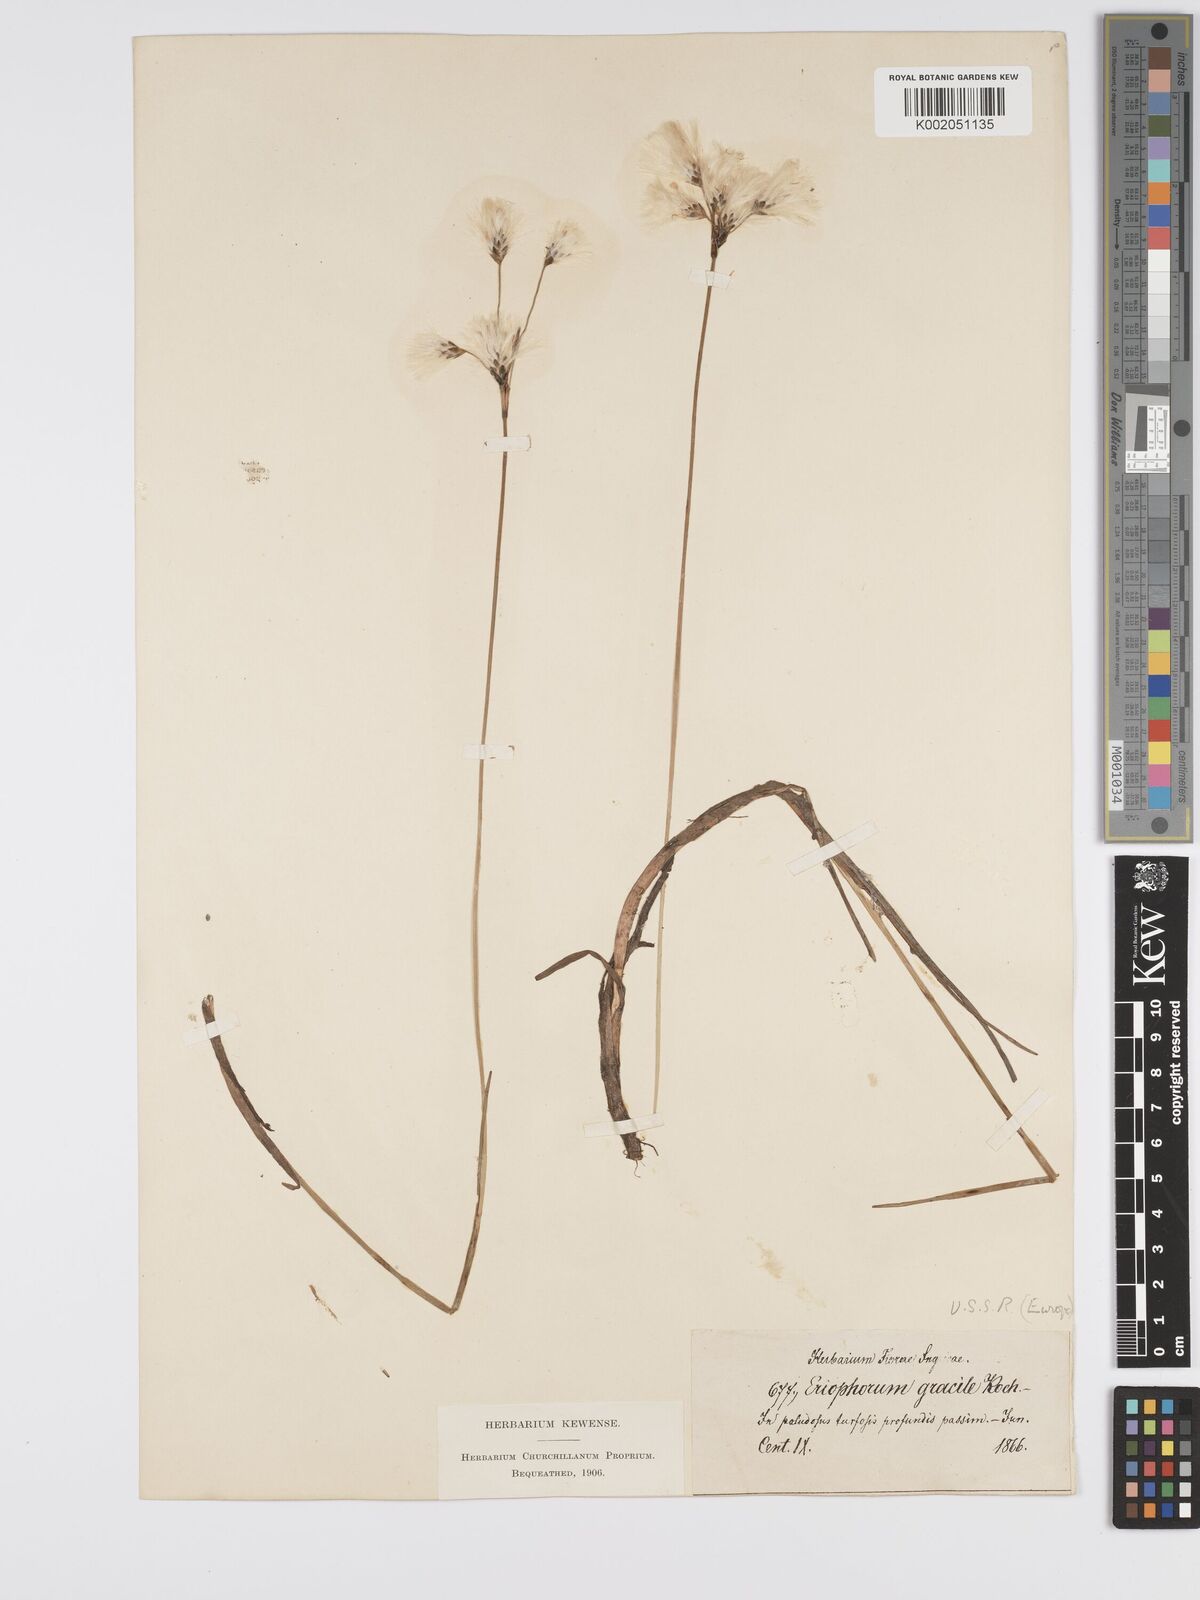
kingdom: Plantae
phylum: Tracheophyta
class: Liliopsida
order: Poales
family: Cyperaceae
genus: Eriophorum
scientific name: Eriophorum gracile
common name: Slender cottongrass
